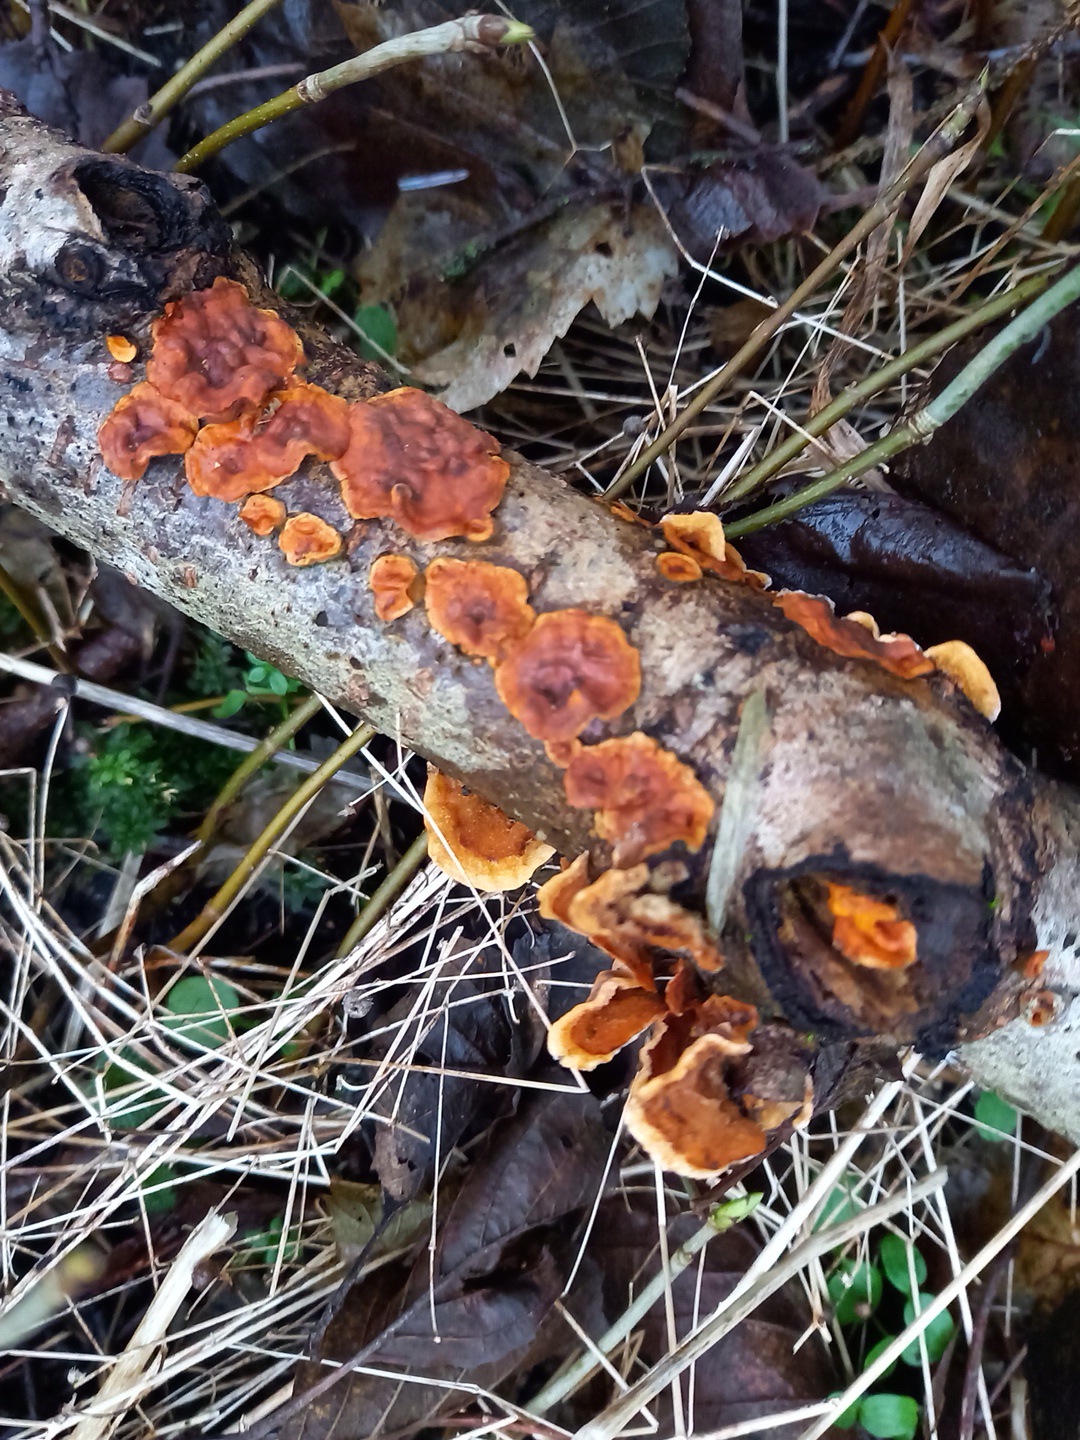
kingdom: Fungi
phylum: Basidiomycota
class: Agaricomycetes
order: Russulales
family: Stereaceae
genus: Stereum
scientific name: Stereum hirsutum
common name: håret lædersvamp
